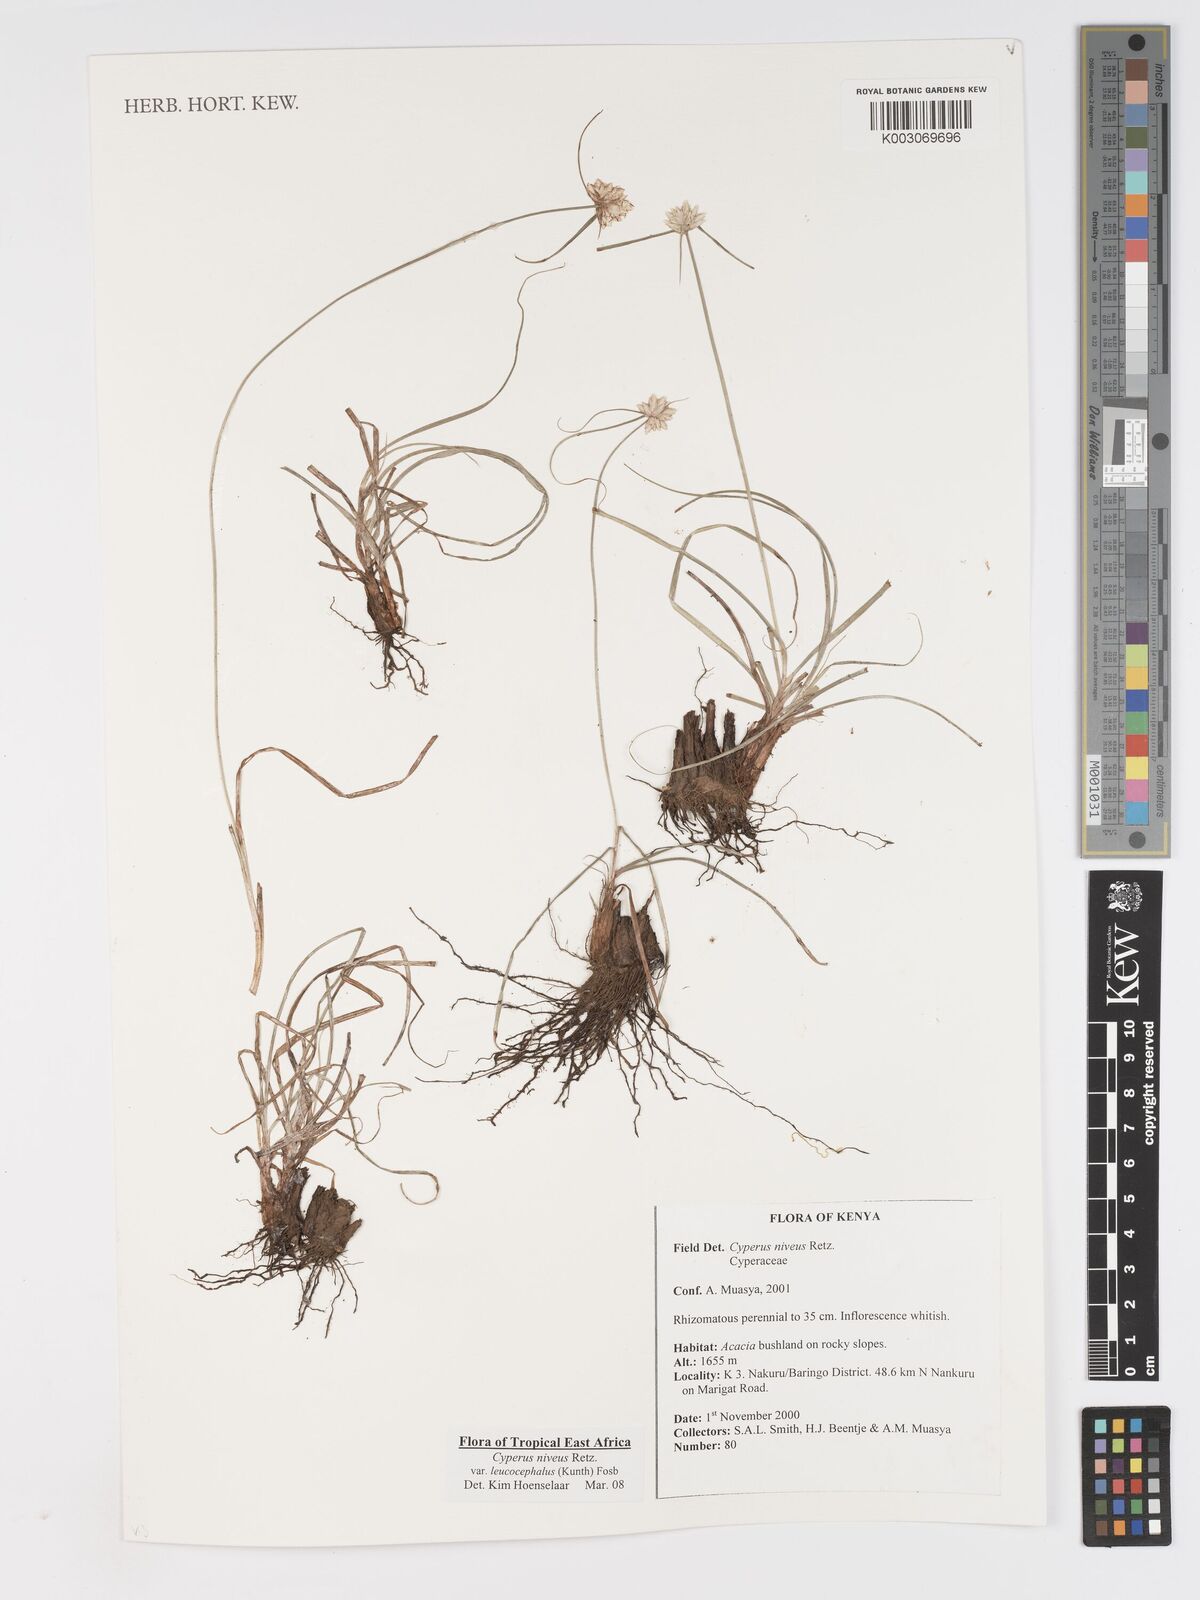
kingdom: Plantae
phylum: Tracheophyta
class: Liliopsida
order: Poales
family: Cyperaceae
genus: Cyperus
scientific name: Cyperus niveus
